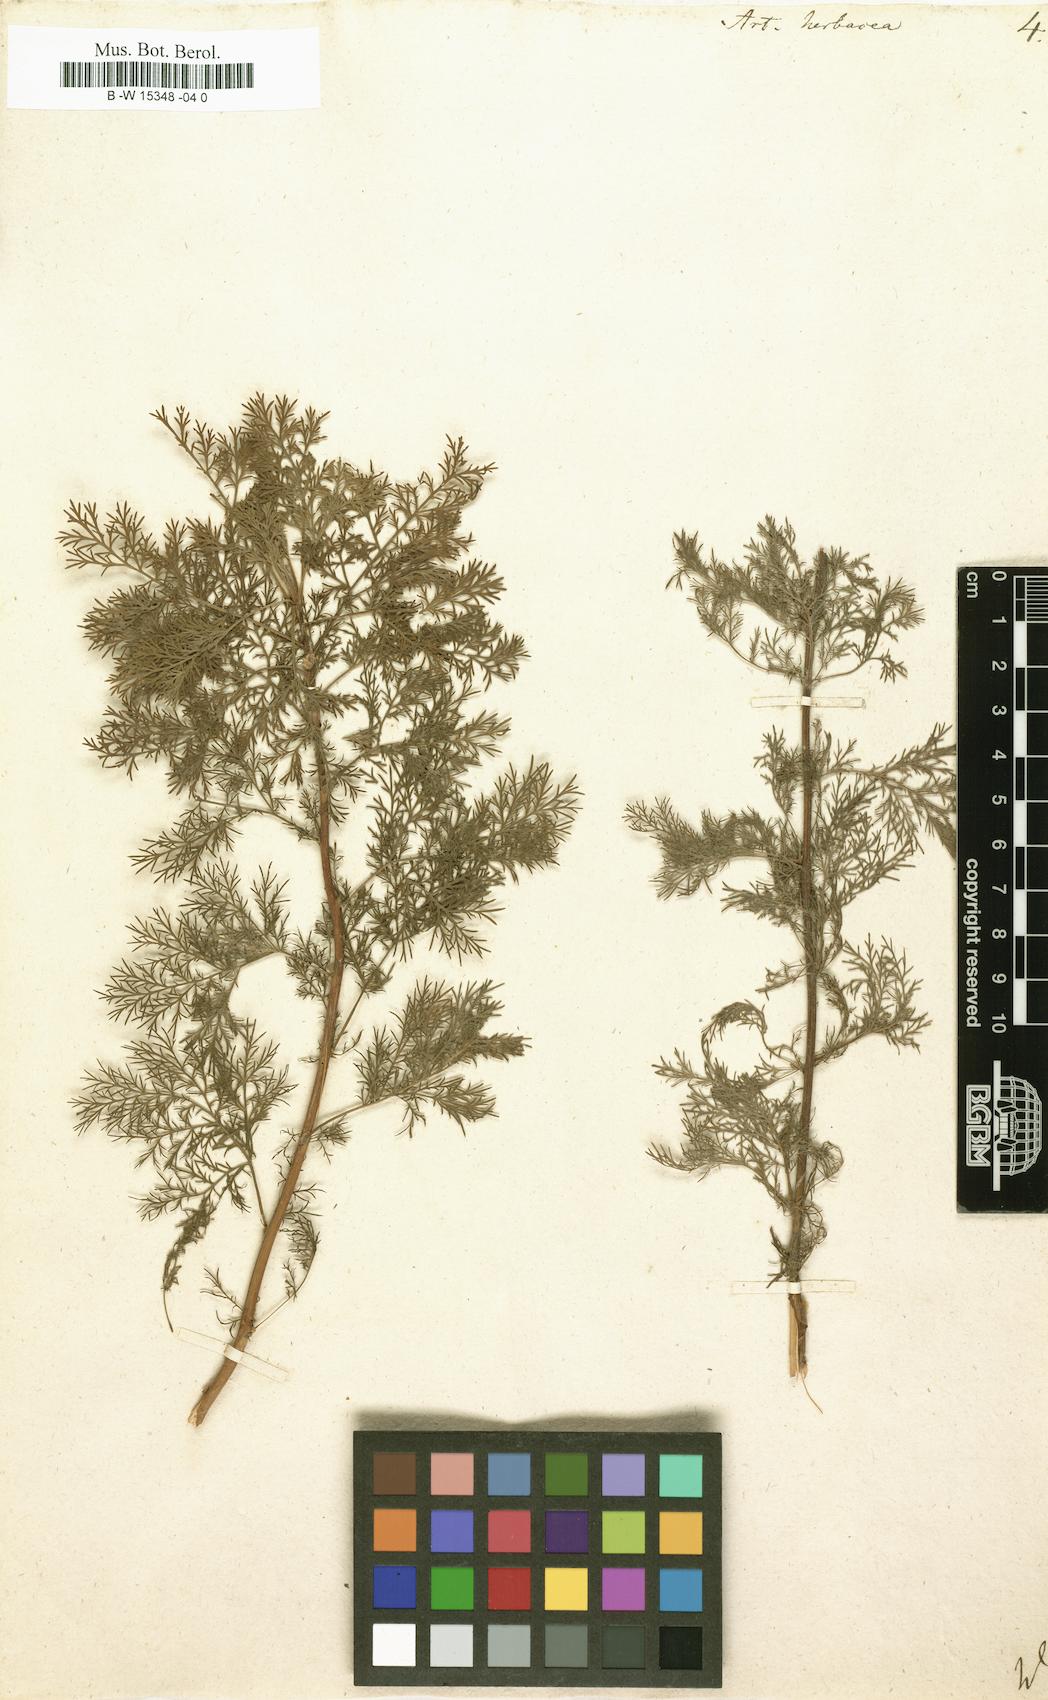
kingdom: Plantae
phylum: Tracheophyta
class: Magnoliopsida
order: Asterales
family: Asteraceae
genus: Artemisia
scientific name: Artemisia abrotanum
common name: Southernwood
